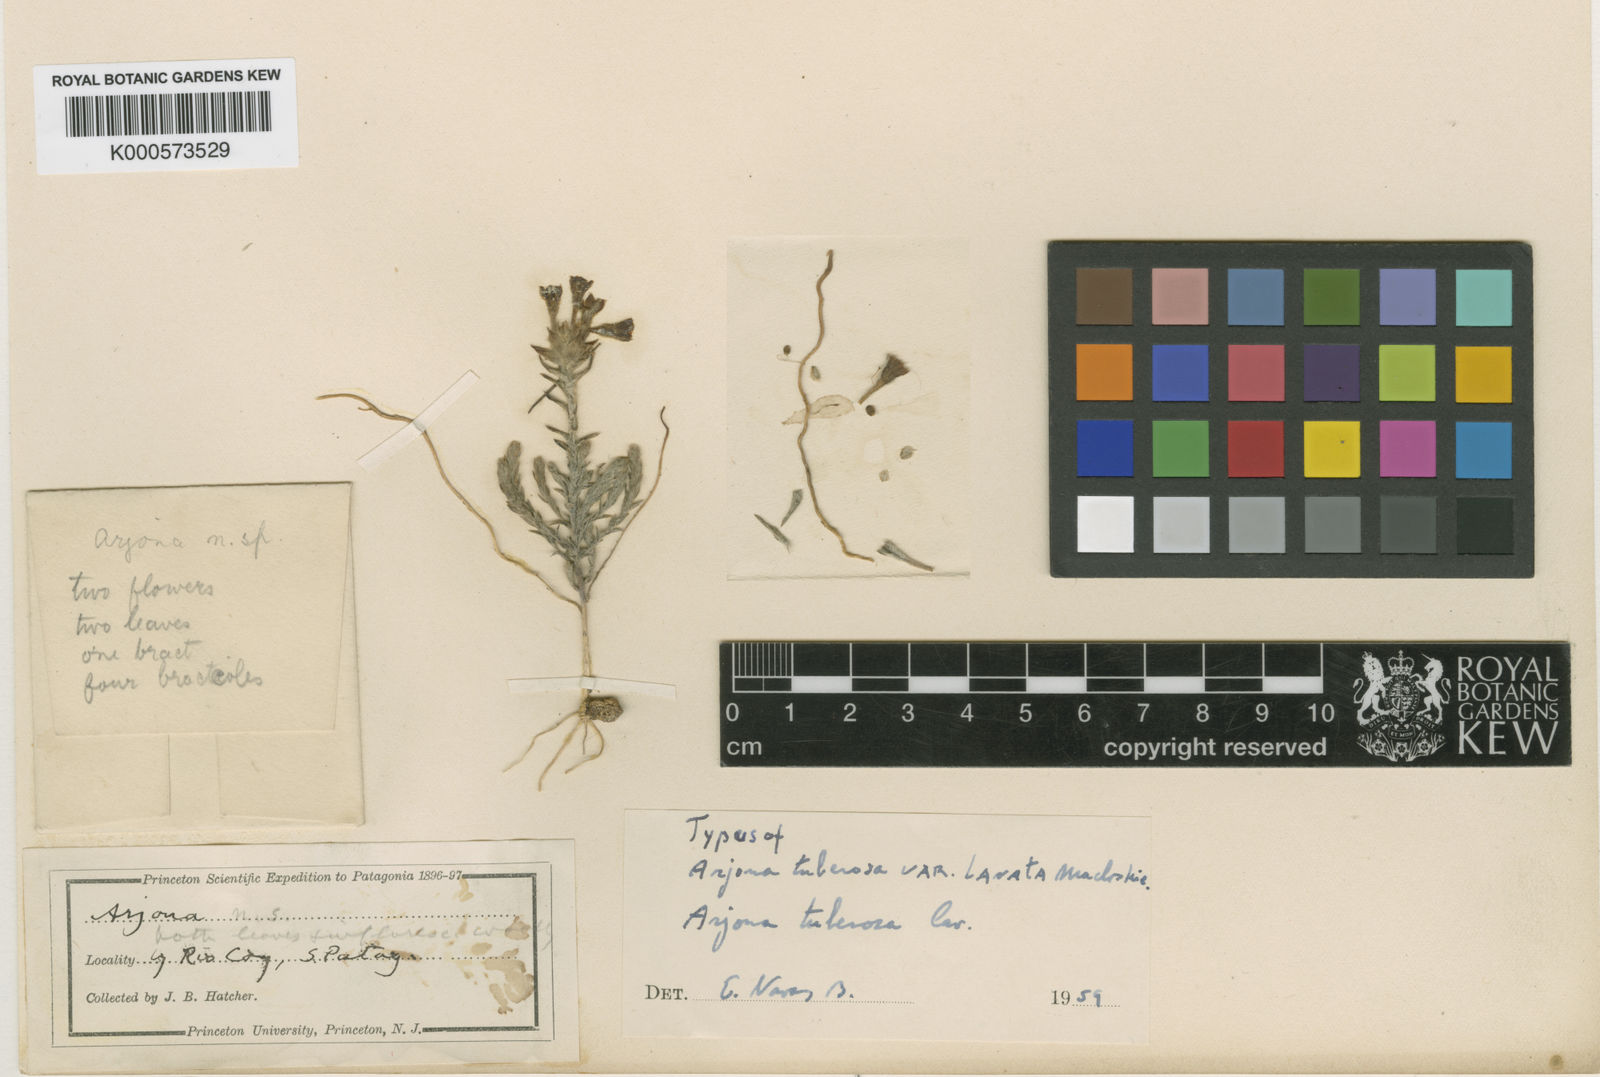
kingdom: Plantae
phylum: Tracheophyta
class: Magnoliopsida
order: Santalales
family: Schoepfiaceae
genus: Arjona
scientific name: Arjona tuberosa
